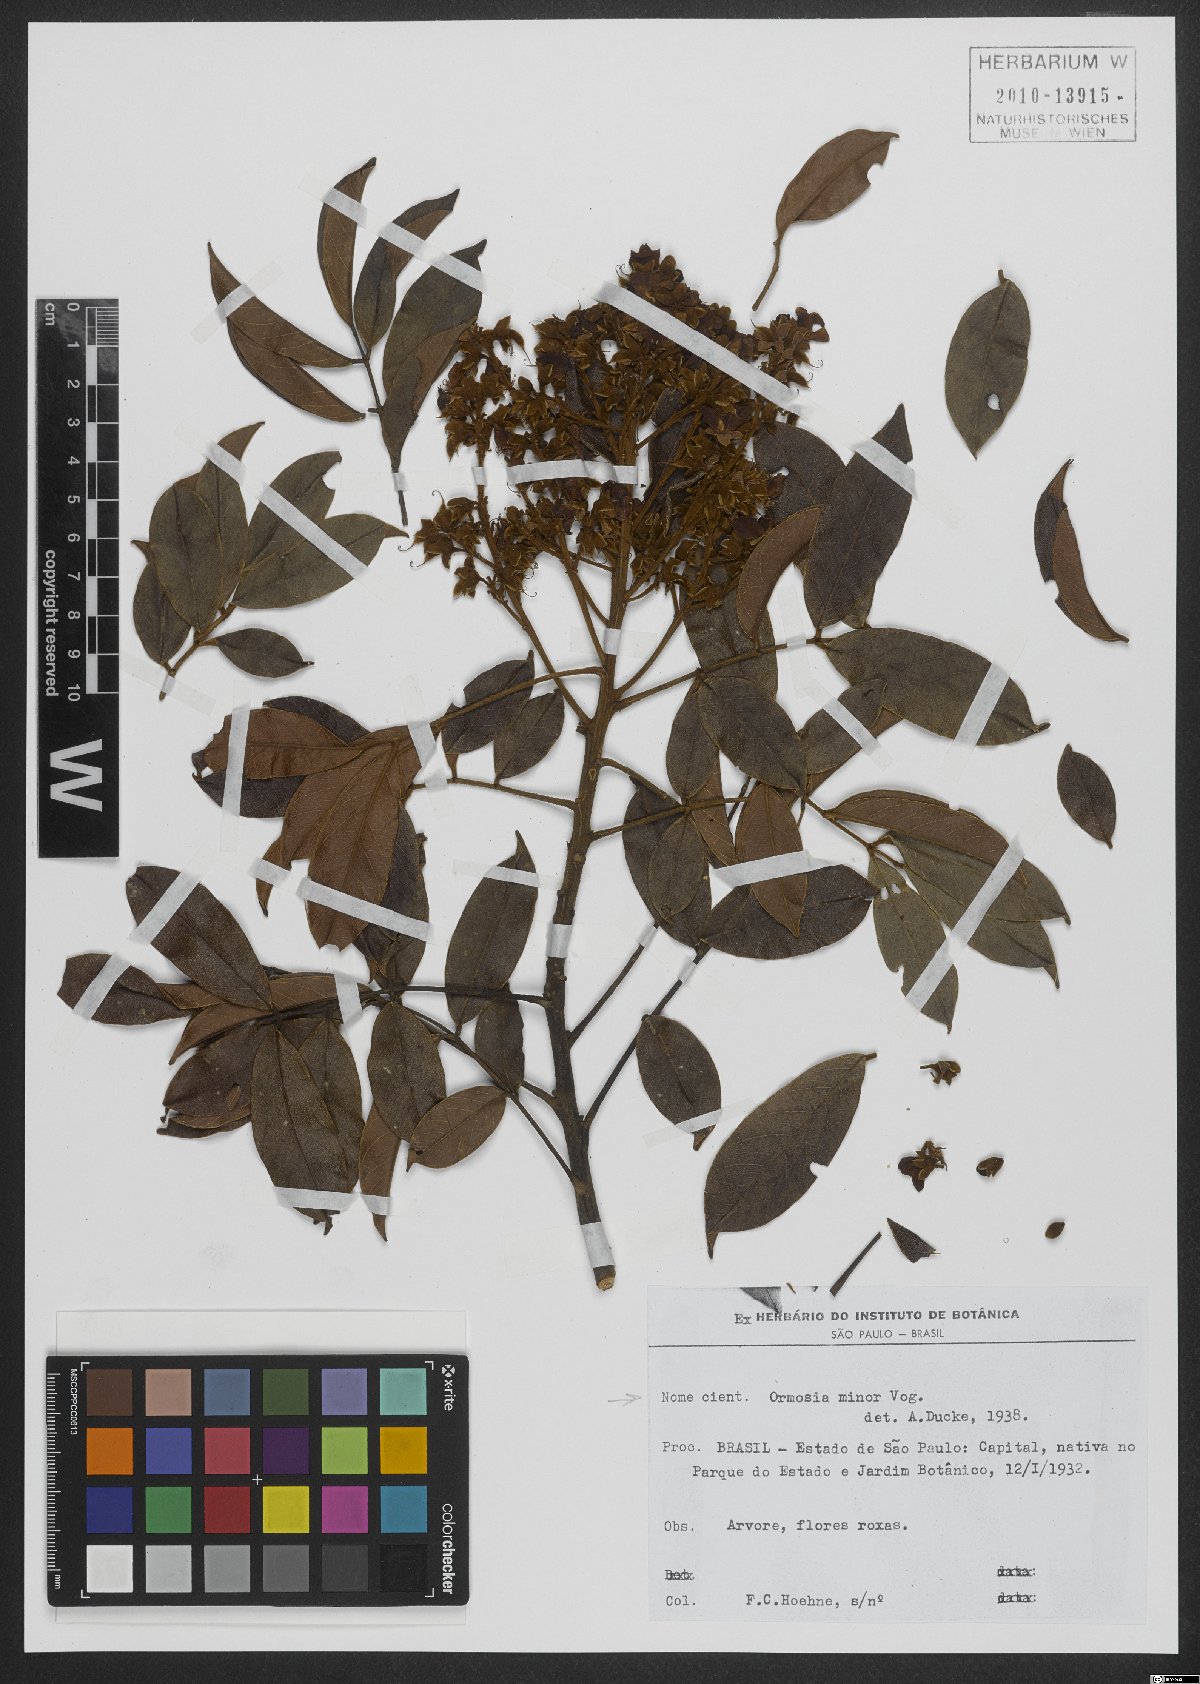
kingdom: Plantae
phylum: Tracheophyta
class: Magnoliopsida
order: Fabales
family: Fabaceae
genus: Ormosia
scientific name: Ormosia minor
